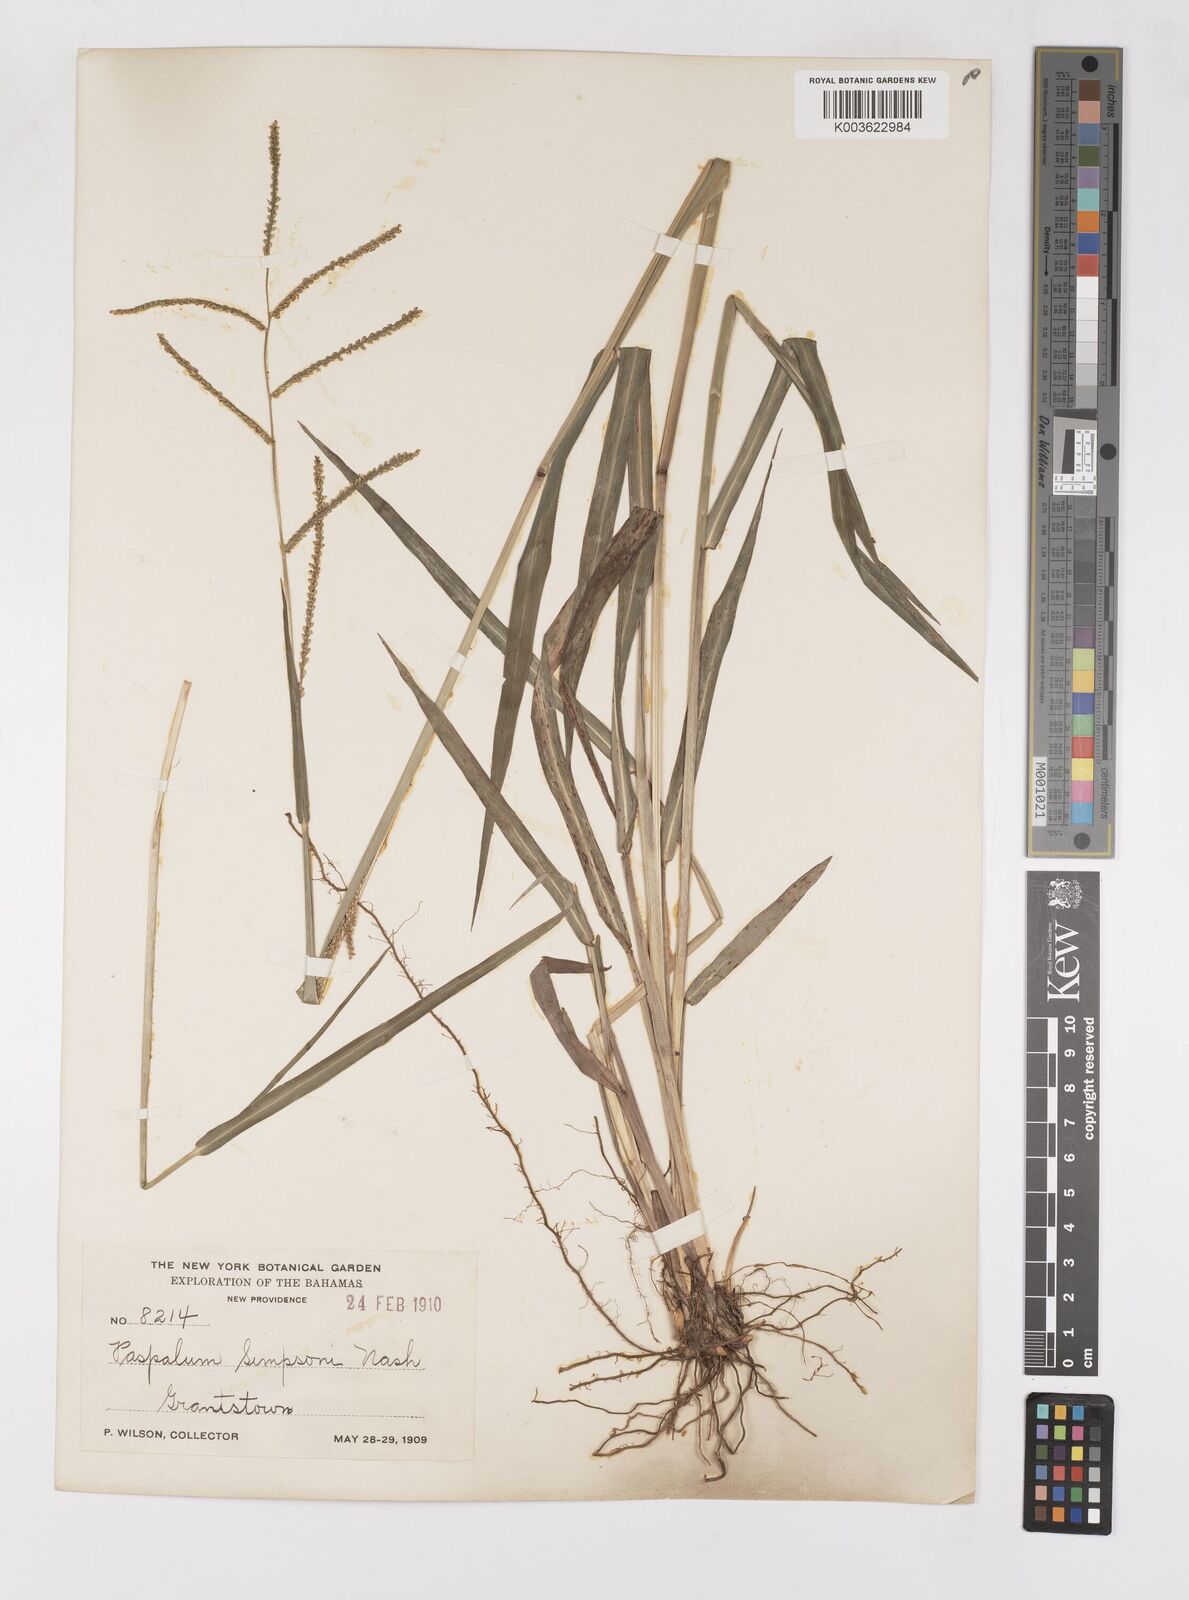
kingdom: Plantae
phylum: Tracheophyta
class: Liliopsida
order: Poales
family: Poaceae
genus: Paspalum
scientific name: Paspalum blodgettii
